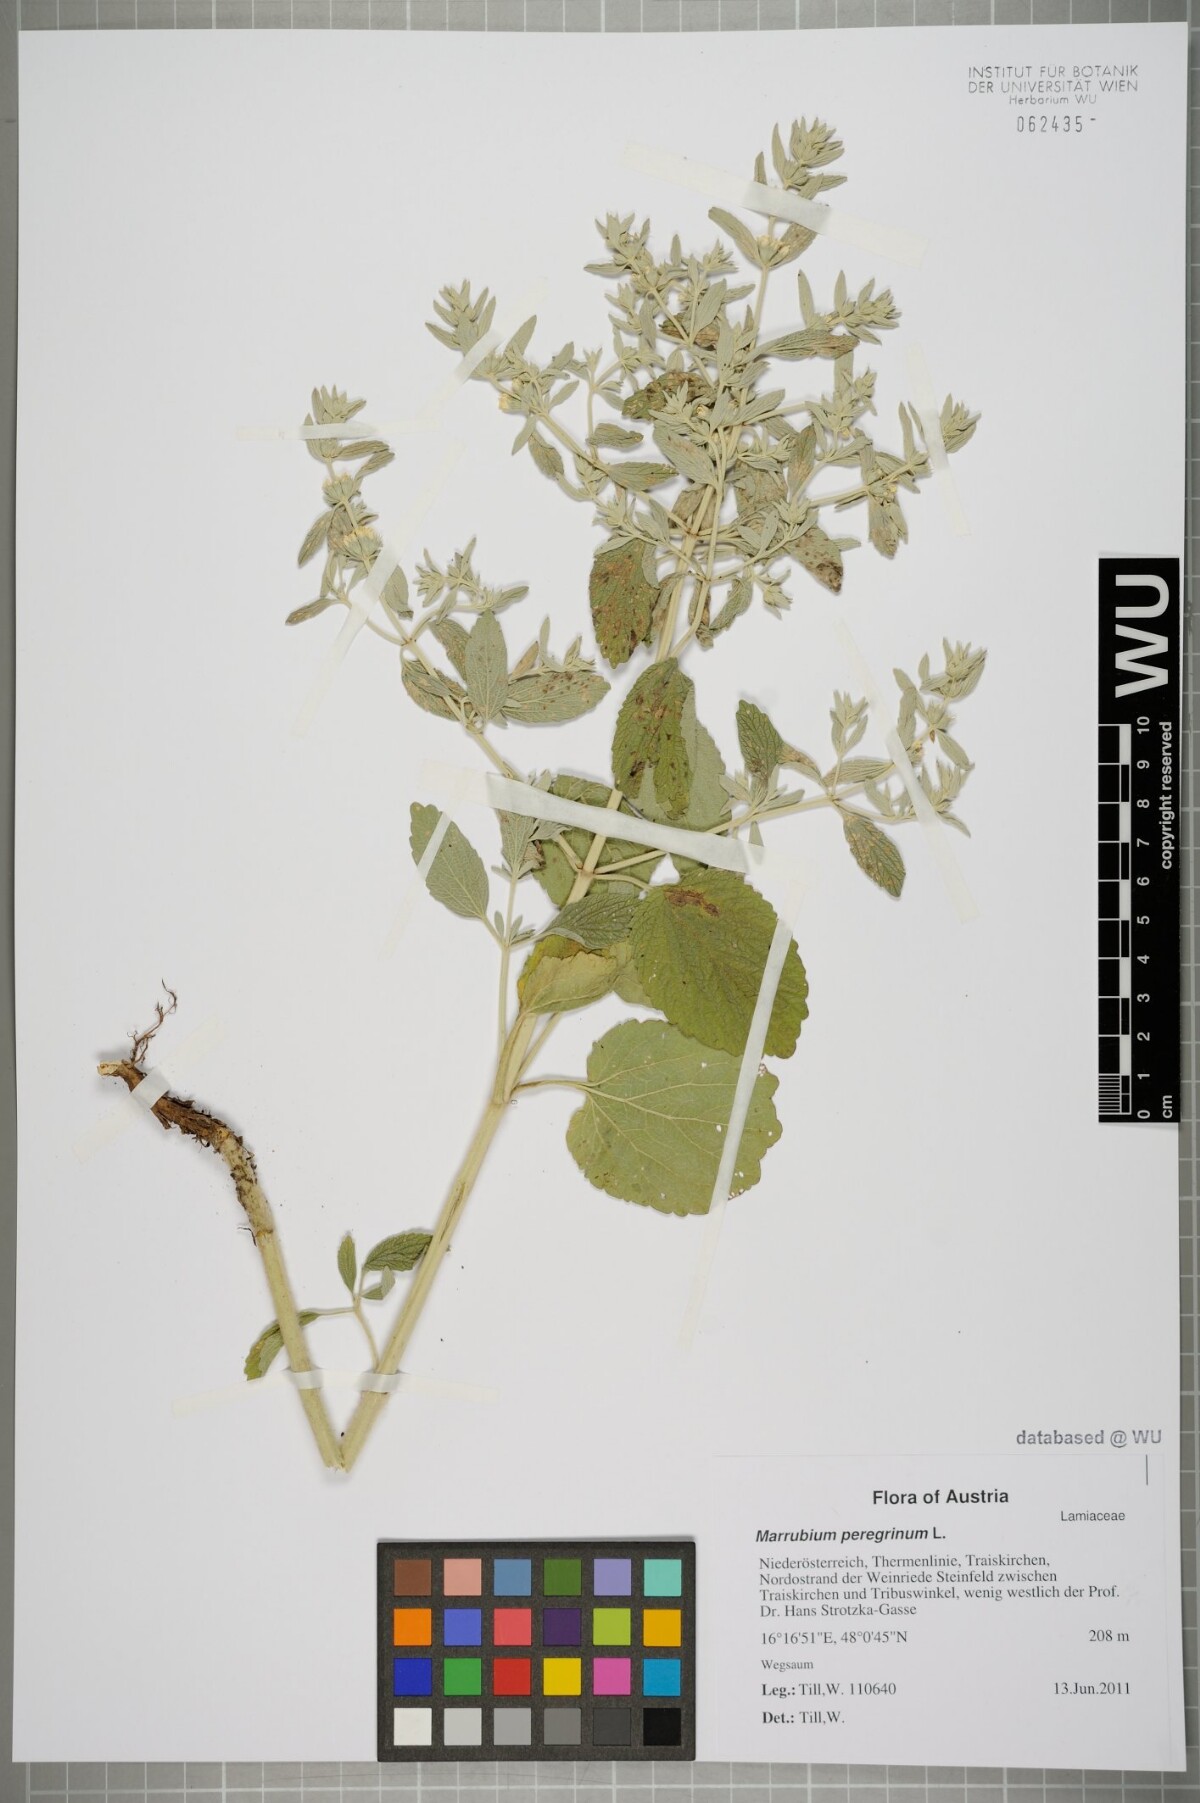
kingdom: Plantae
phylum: Tracheophyta
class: Magnoliopsida
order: Lamiales
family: Lamiaceae
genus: Marrubium
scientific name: Marrubium peregrinum
